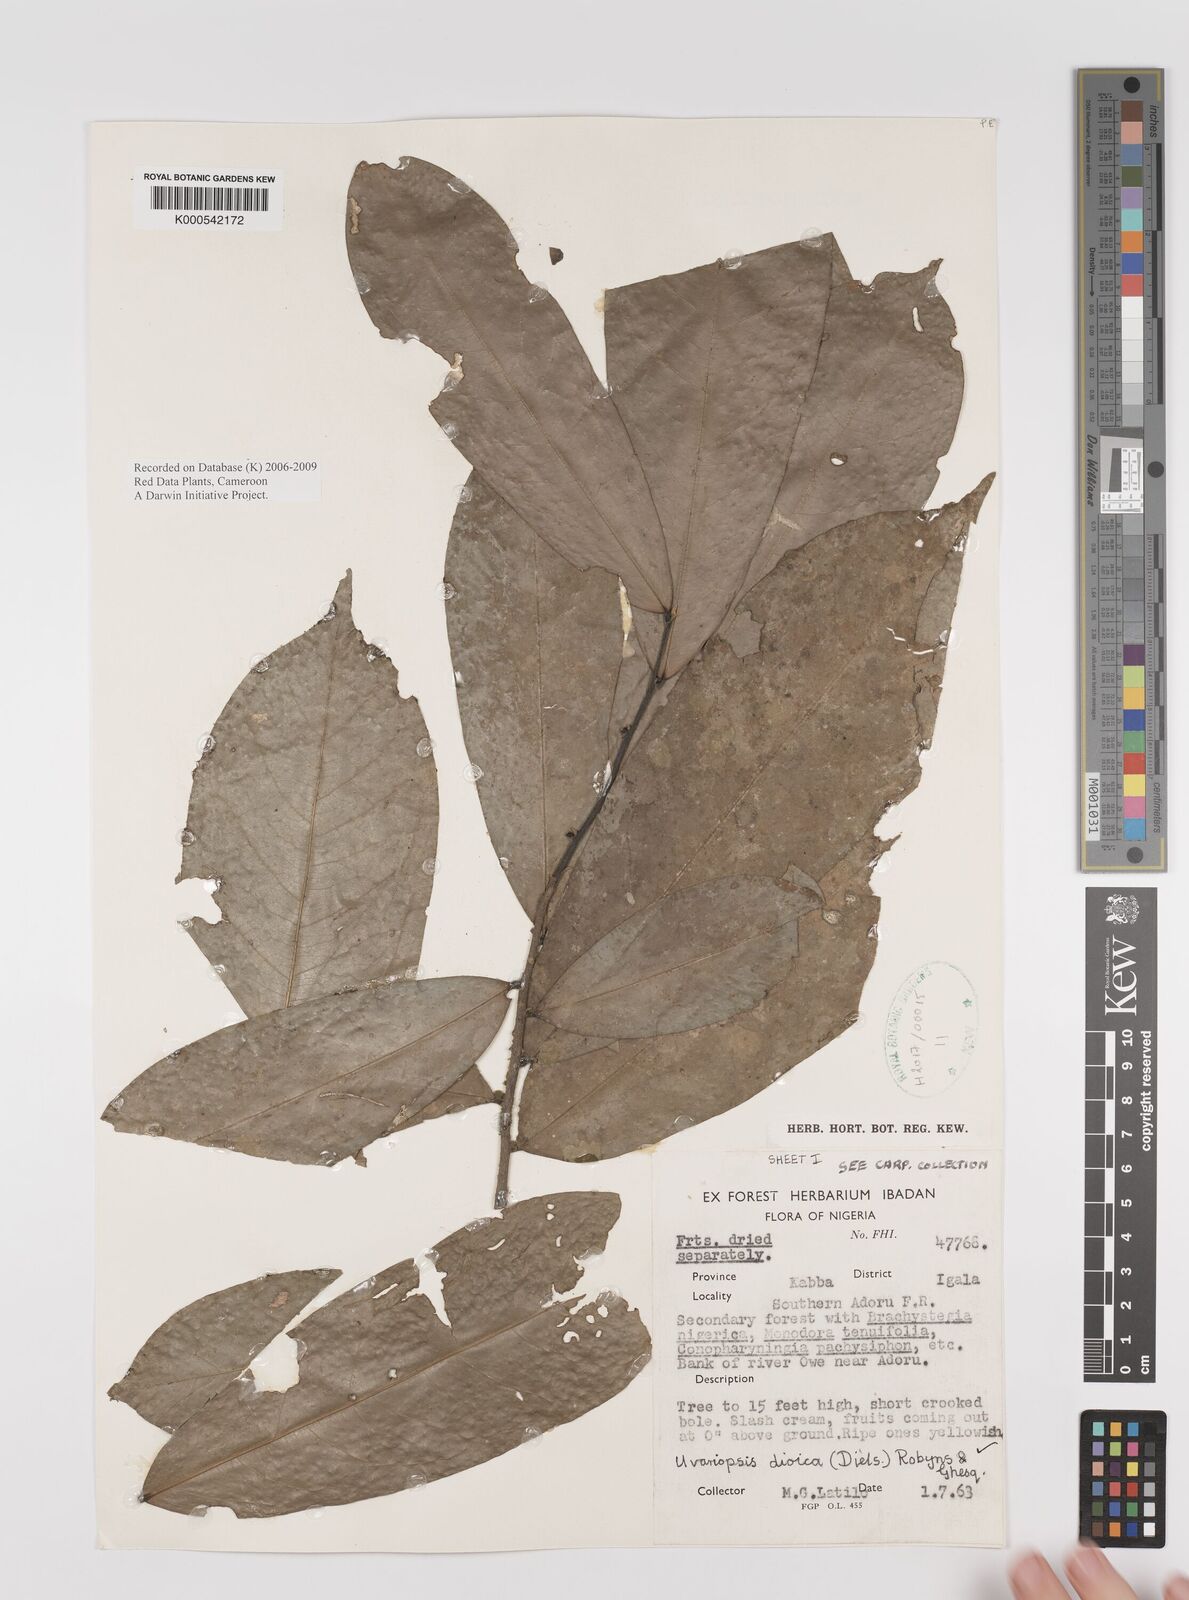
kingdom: Plantae
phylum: Tracheophyta
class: Magnoliopsida
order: Magnoliales
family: Annonaceae
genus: Uvariopsis
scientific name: Uvariopsis dioica
